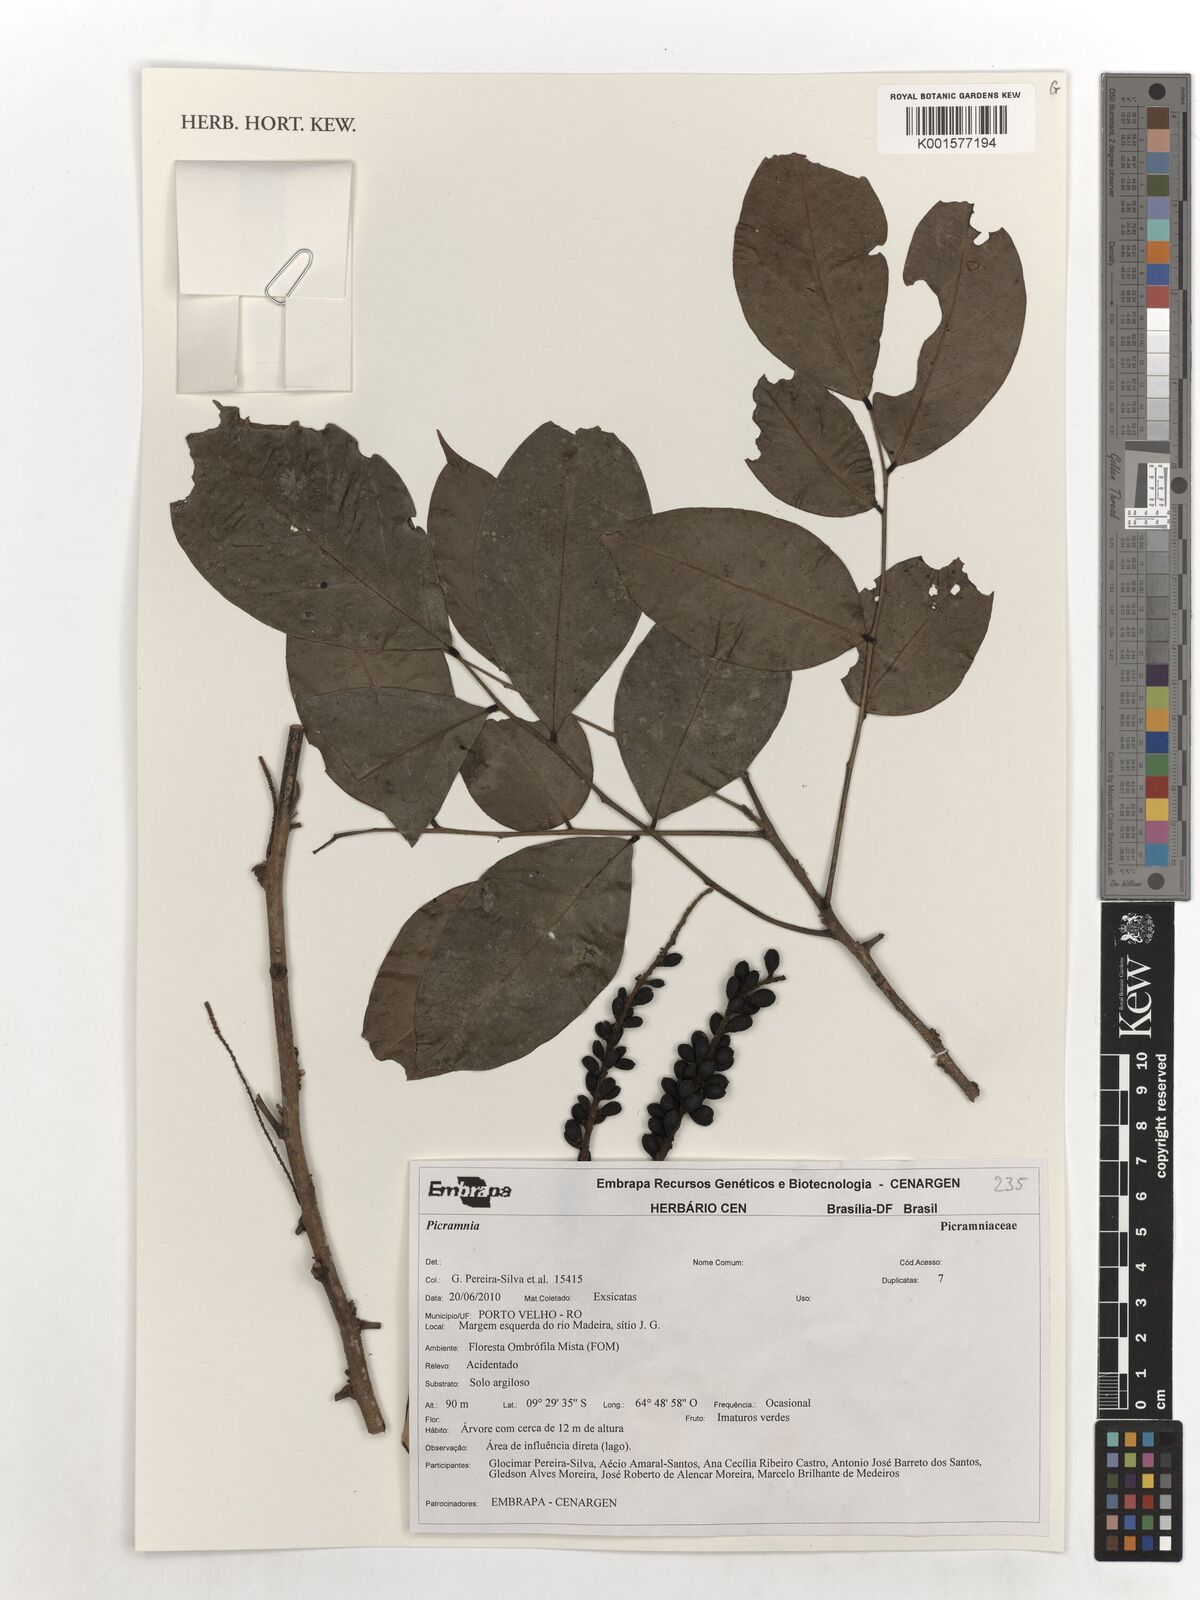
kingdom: Plantae
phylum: Tracheophyta
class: Magnoliopsida
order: Picramniales
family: Picramniaceae
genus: Picramnia
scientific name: Picramnia
